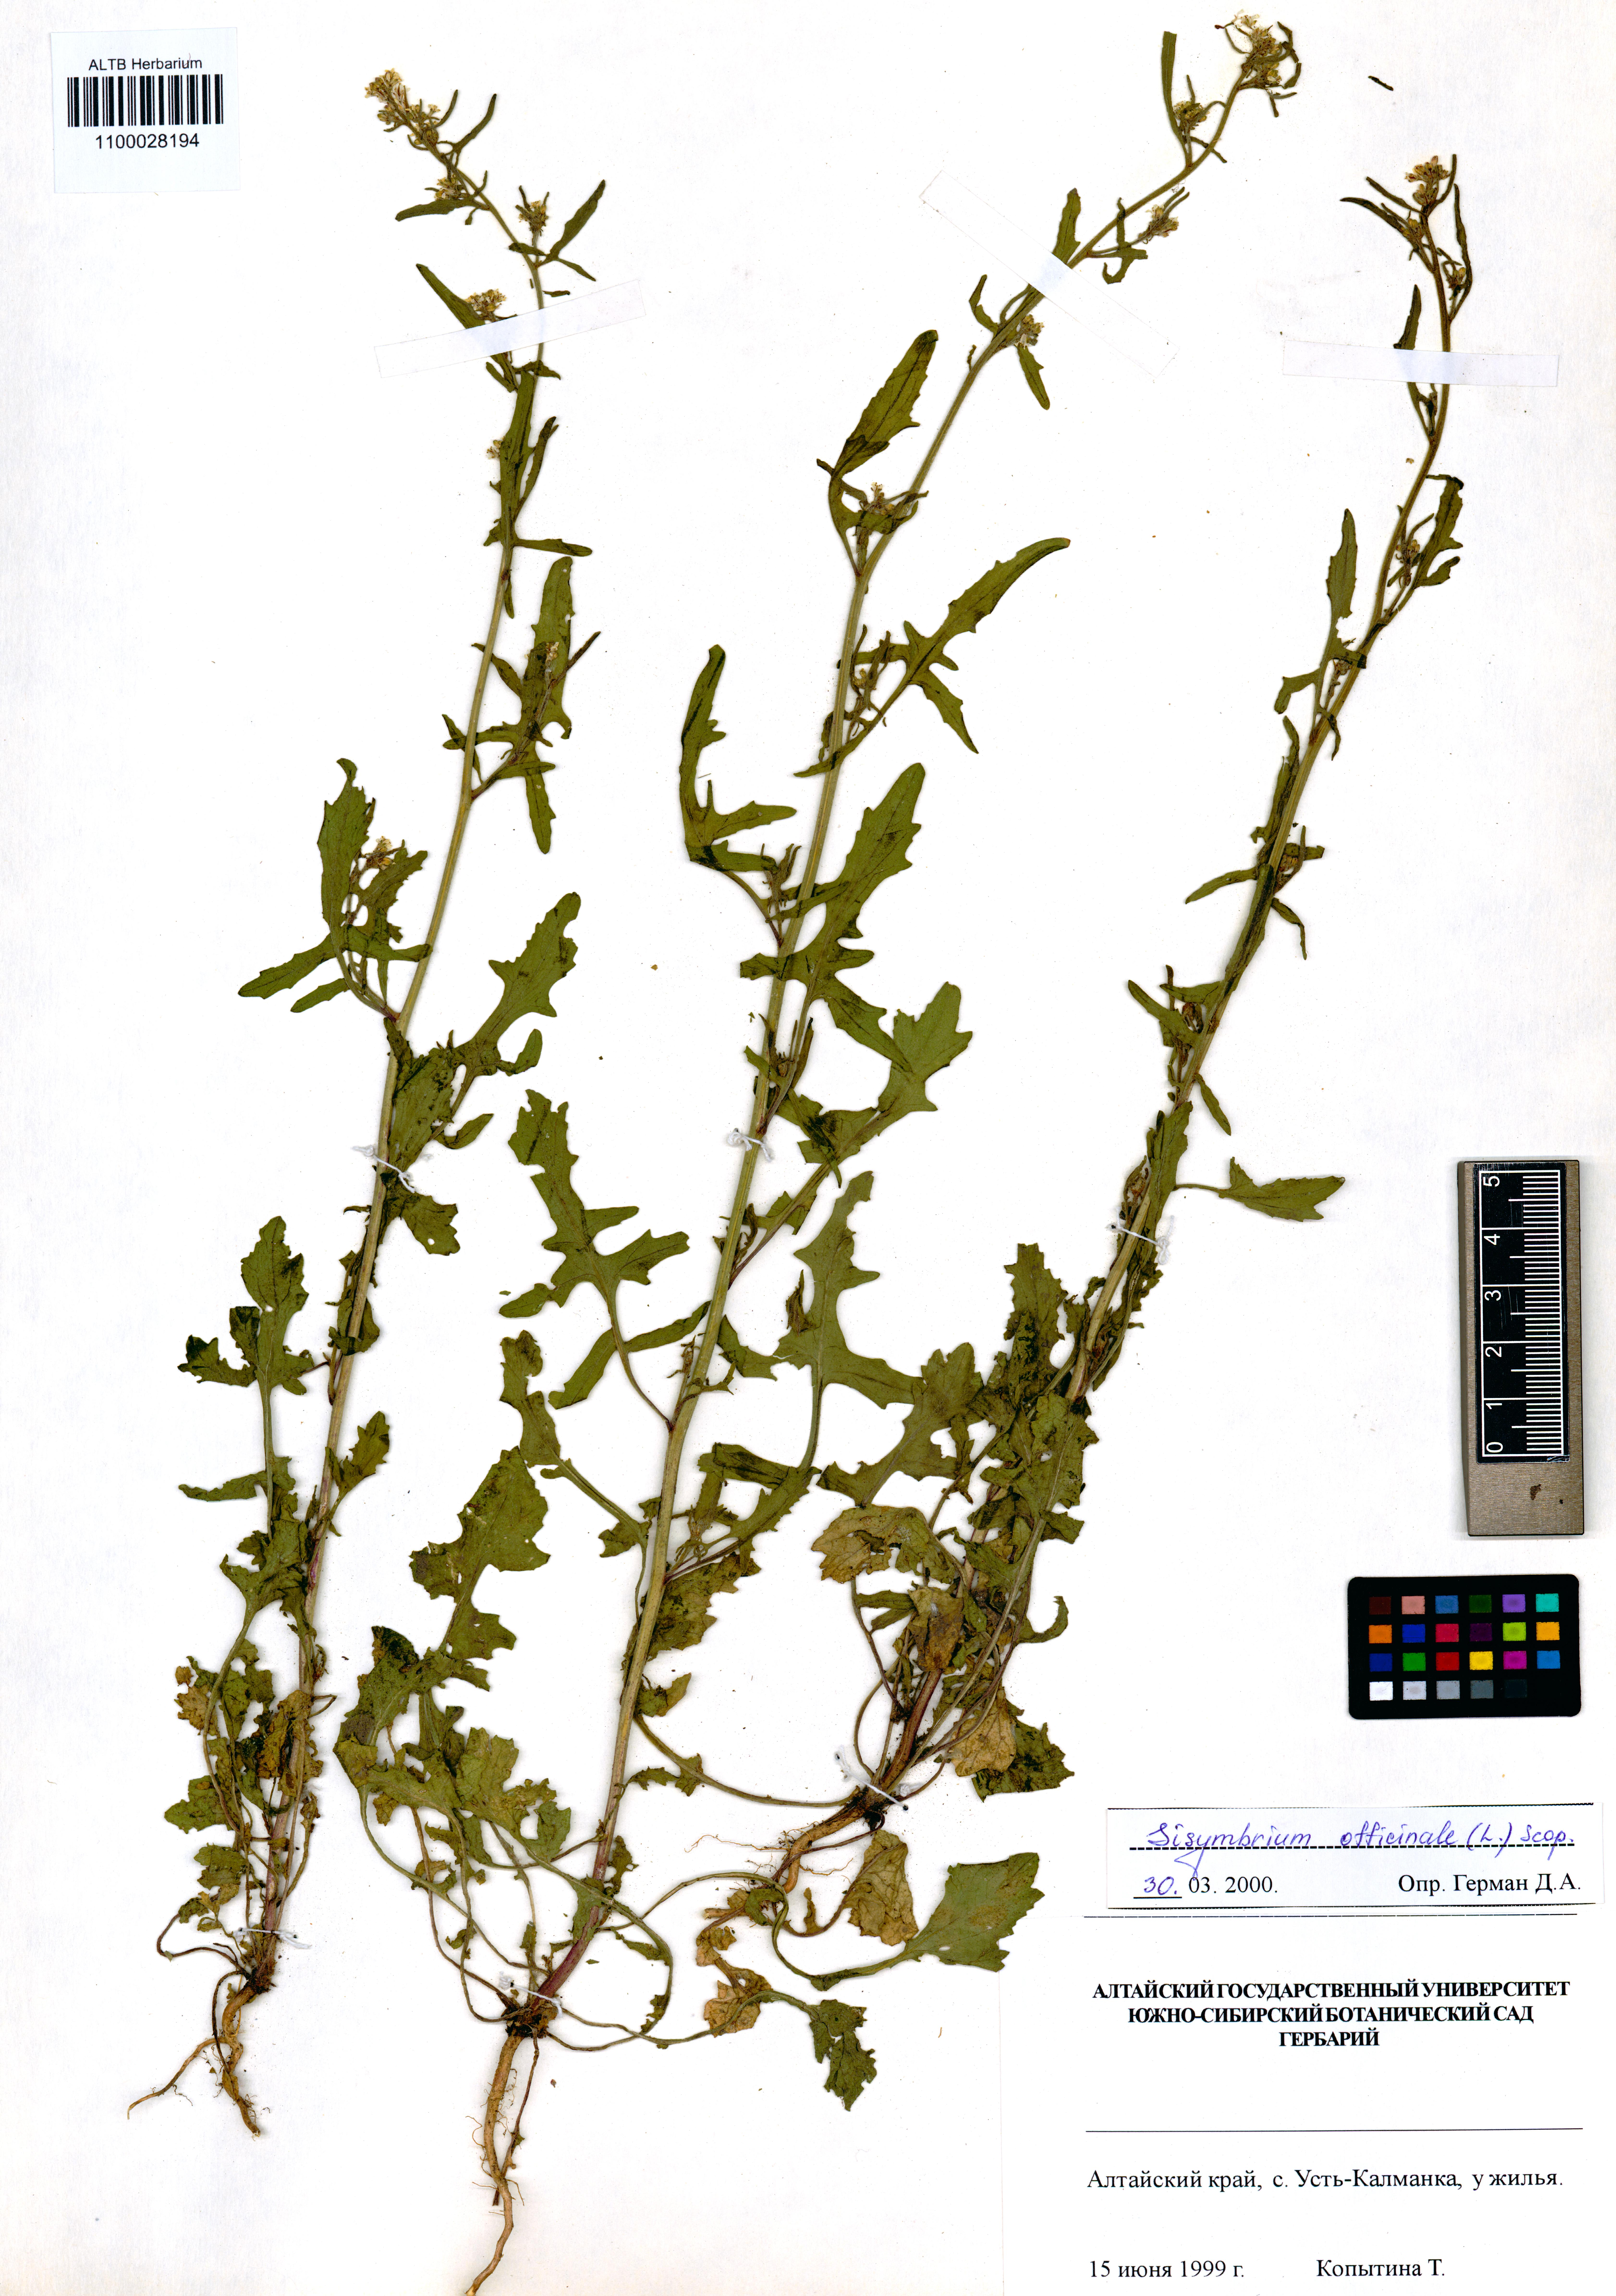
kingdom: Plantae
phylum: Tracheophyta
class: Magnoliopsida
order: Brassicales
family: Brassicaceae
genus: Sisymbrium
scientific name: Sisymbrium officinale
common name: Hedge mustard
